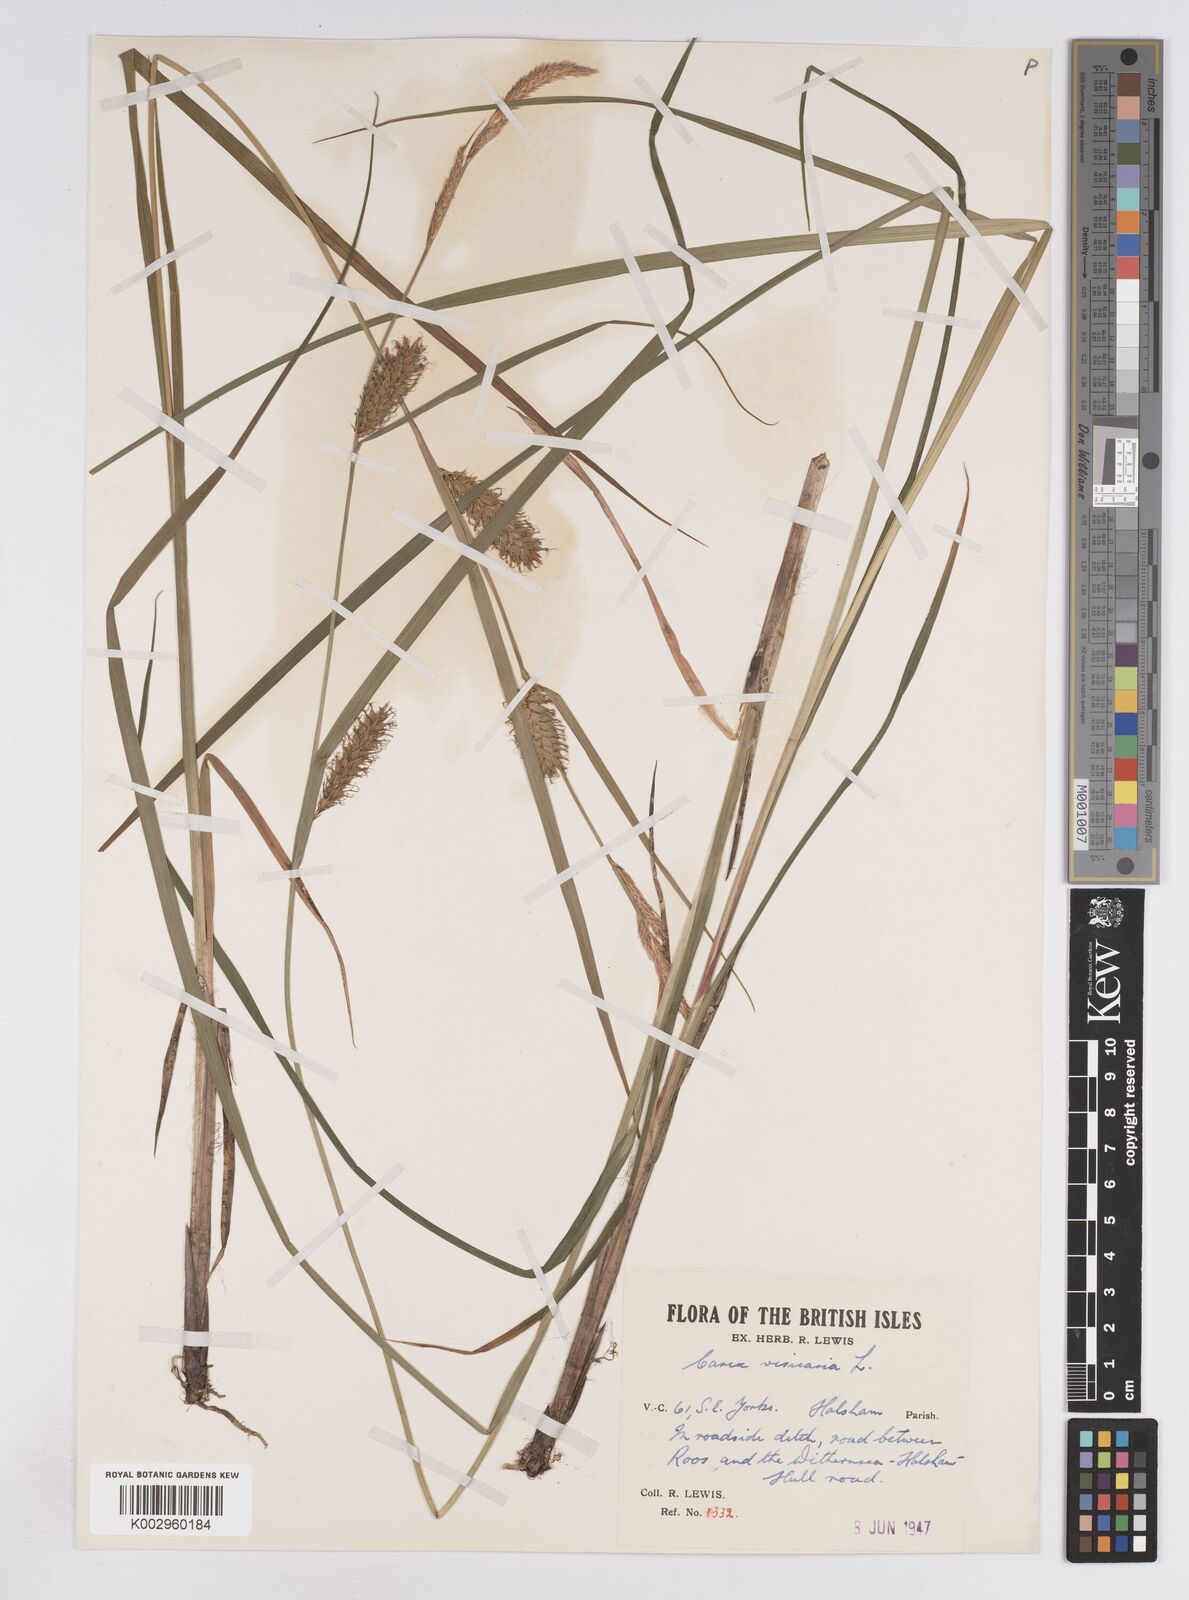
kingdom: Plantae
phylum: Tracheophyta
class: Liliopsida
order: Poales
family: Cyperaceae
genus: Carex
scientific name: Carex vesicaria
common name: Bladder-sedge
